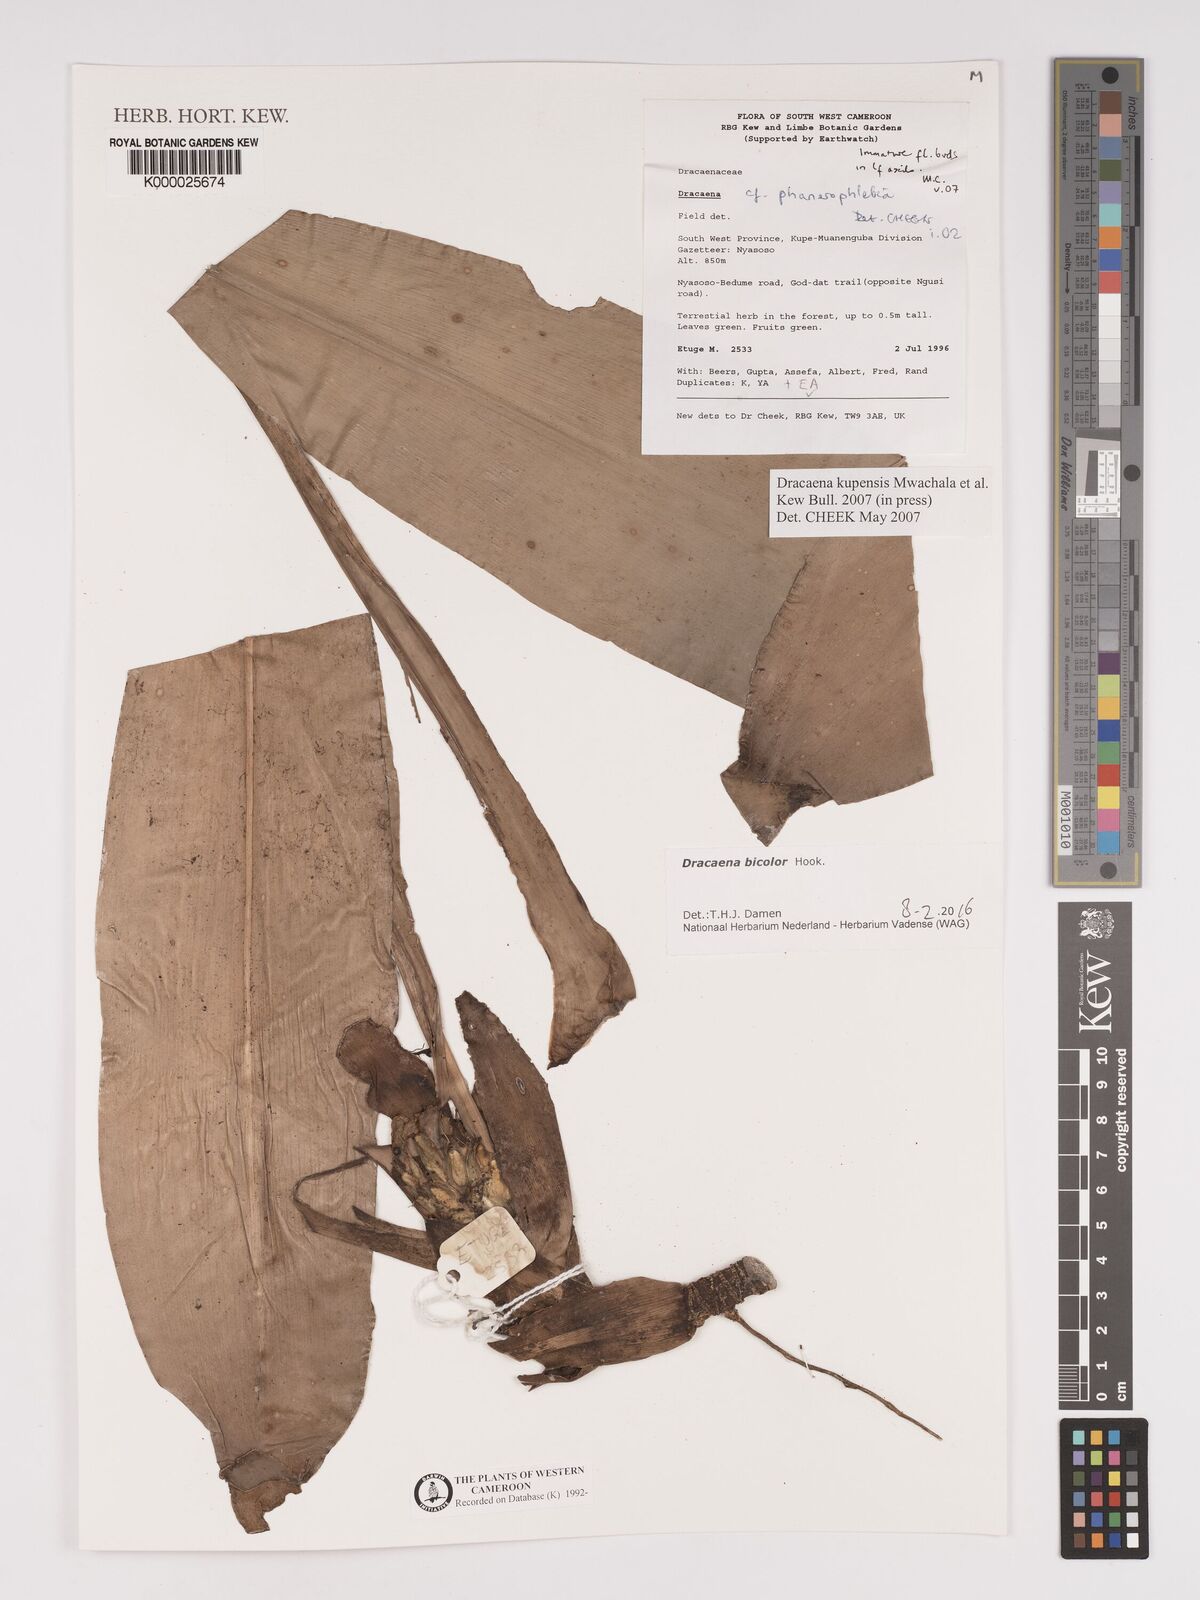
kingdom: Plantae
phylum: Tracheophyta
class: Liliopsida
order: Asparagales
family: Asparagaceae
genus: Dracaena
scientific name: Dracaena kupensis
